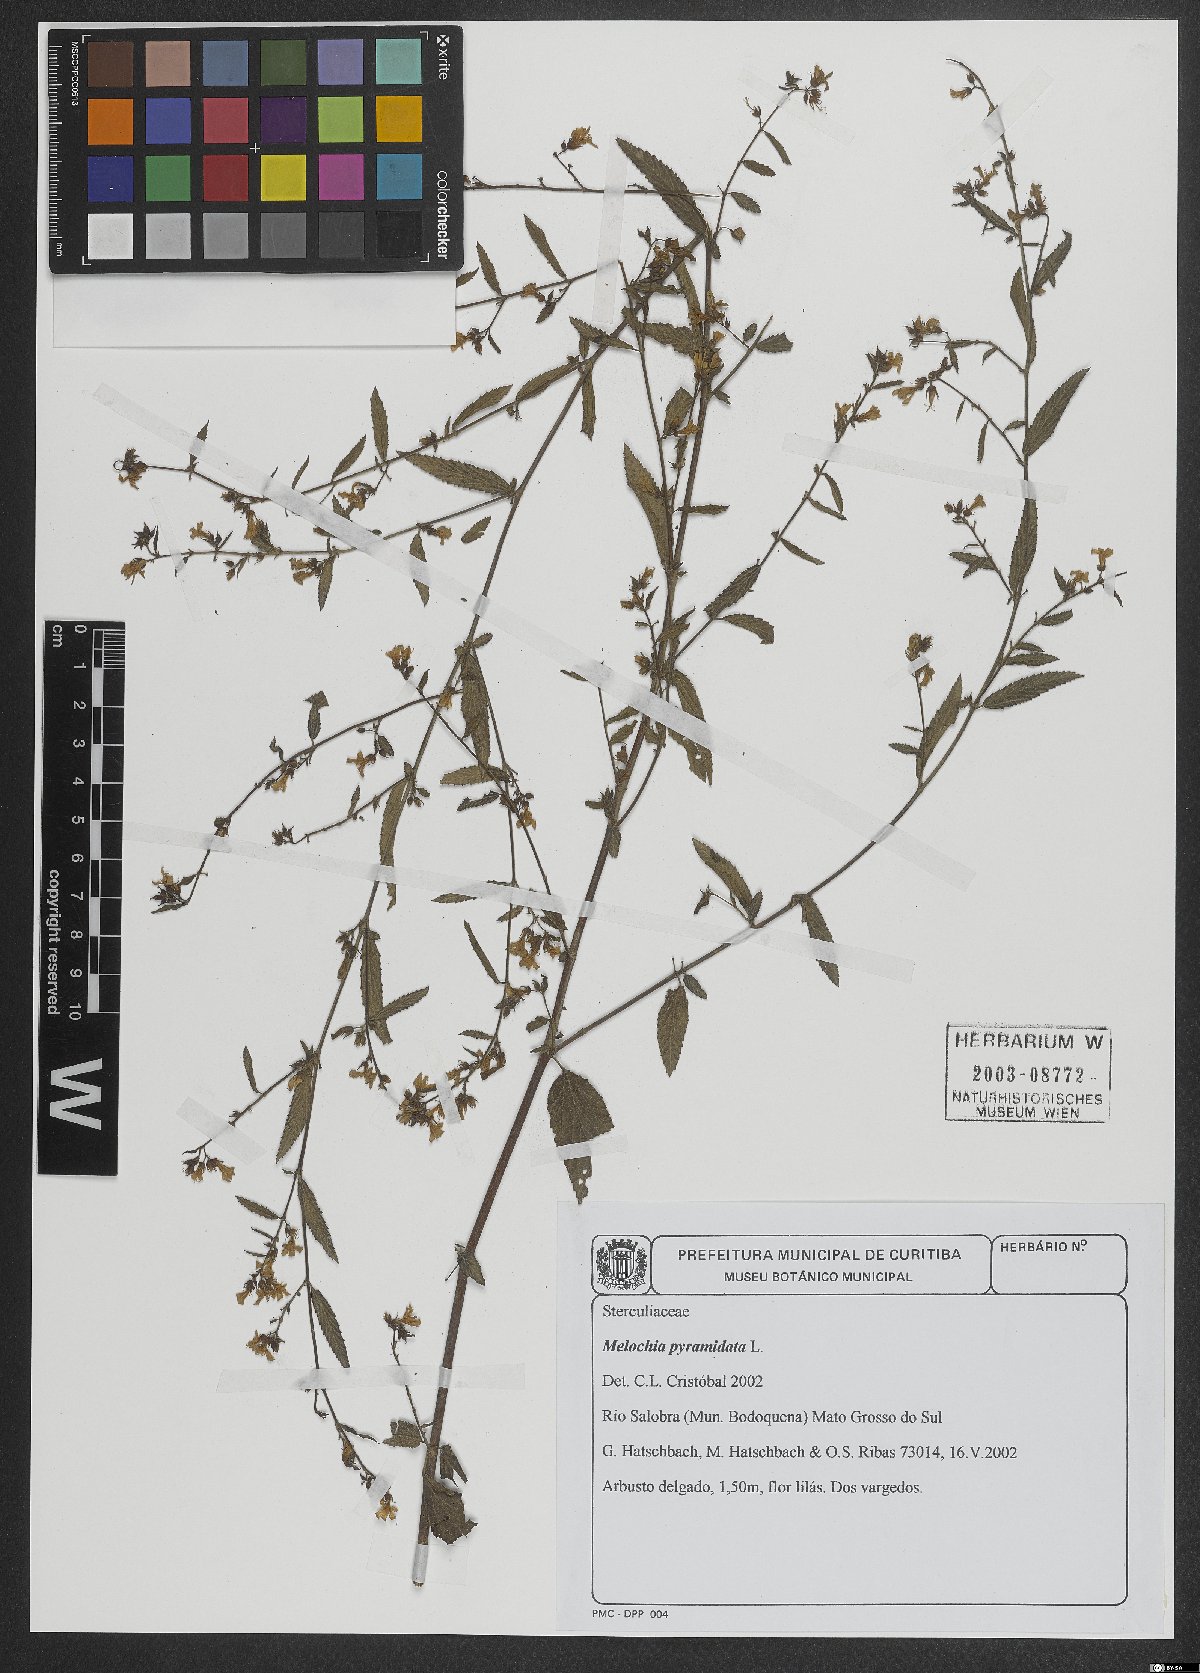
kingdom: Plantae
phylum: Tracheophyta
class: Magnoliopsida
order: Malvales
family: Malvaceae
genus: Melochia
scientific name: Melochia pyramidata
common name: Pyramidflower
